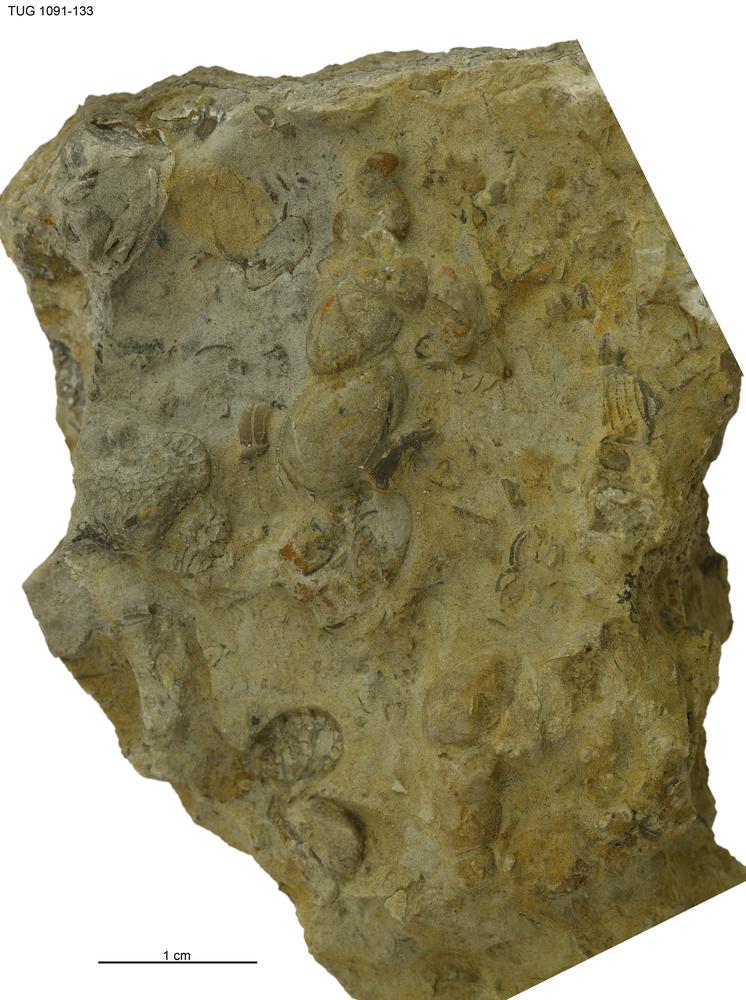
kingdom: Animalia
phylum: Mollusca
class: Gastropoda
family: Loxonematidae
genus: Loxonema
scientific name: Loxonema strangulatum
